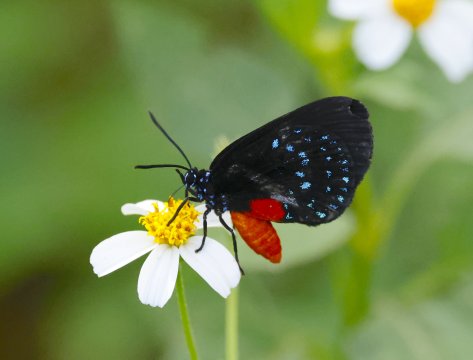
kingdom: Animalia
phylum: Arthropoda
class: Insecta
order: Lepidoptera
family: Lycaenidae
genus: Eumaeus
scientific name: Eumaeus atala
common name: Atala
